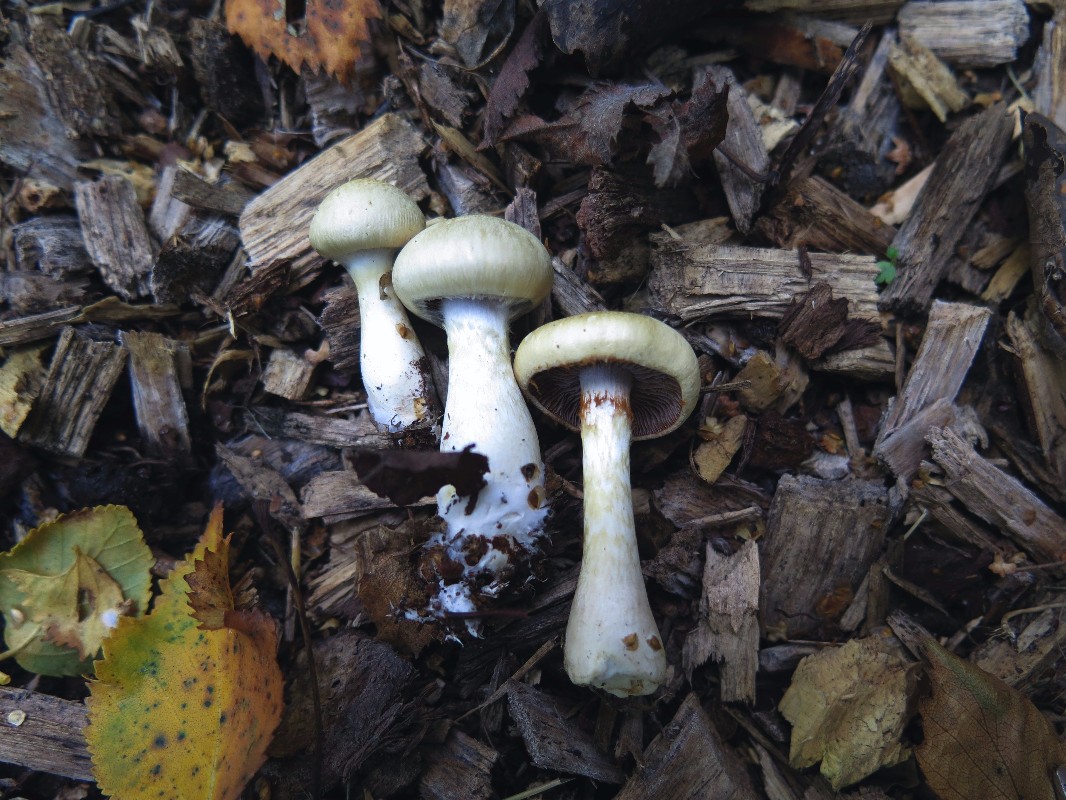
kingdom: Fungi
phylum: Basidiomycota
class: Agaricomycetes
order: Agaricales
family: Cortinariaceae
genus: Cortinarius
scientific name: Cortinarius delibutus
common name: gul slørhat
